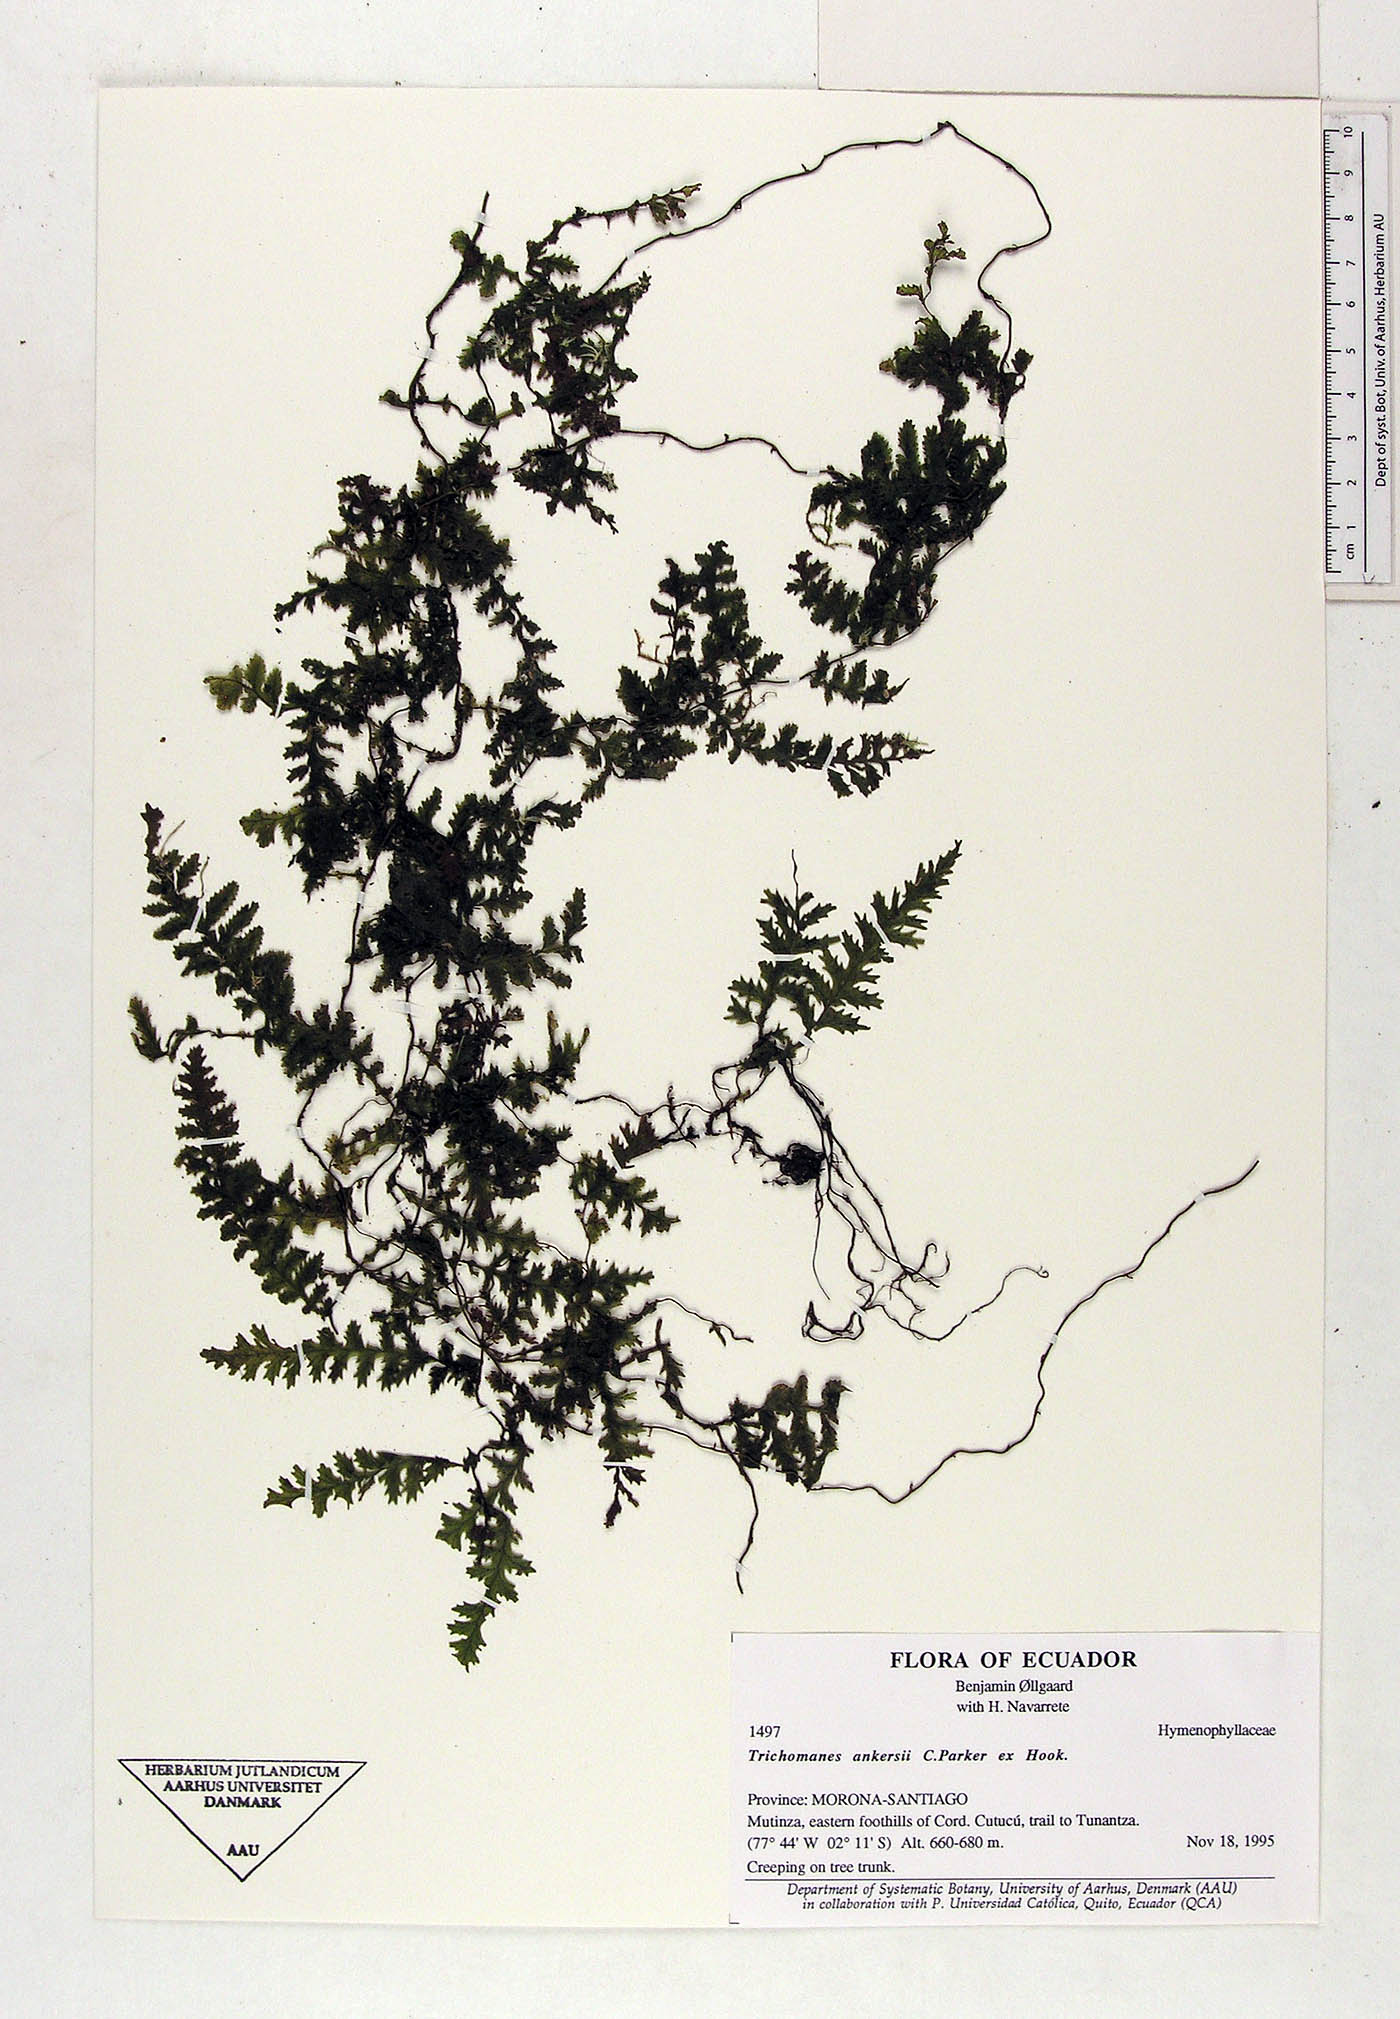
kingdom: Plantae
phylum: Tracheophyta
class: Polypodiopsida
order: Hymenophyllales
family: Hymenophyllaceae
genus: Trichomanes
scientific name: Trichomanes ankersii
